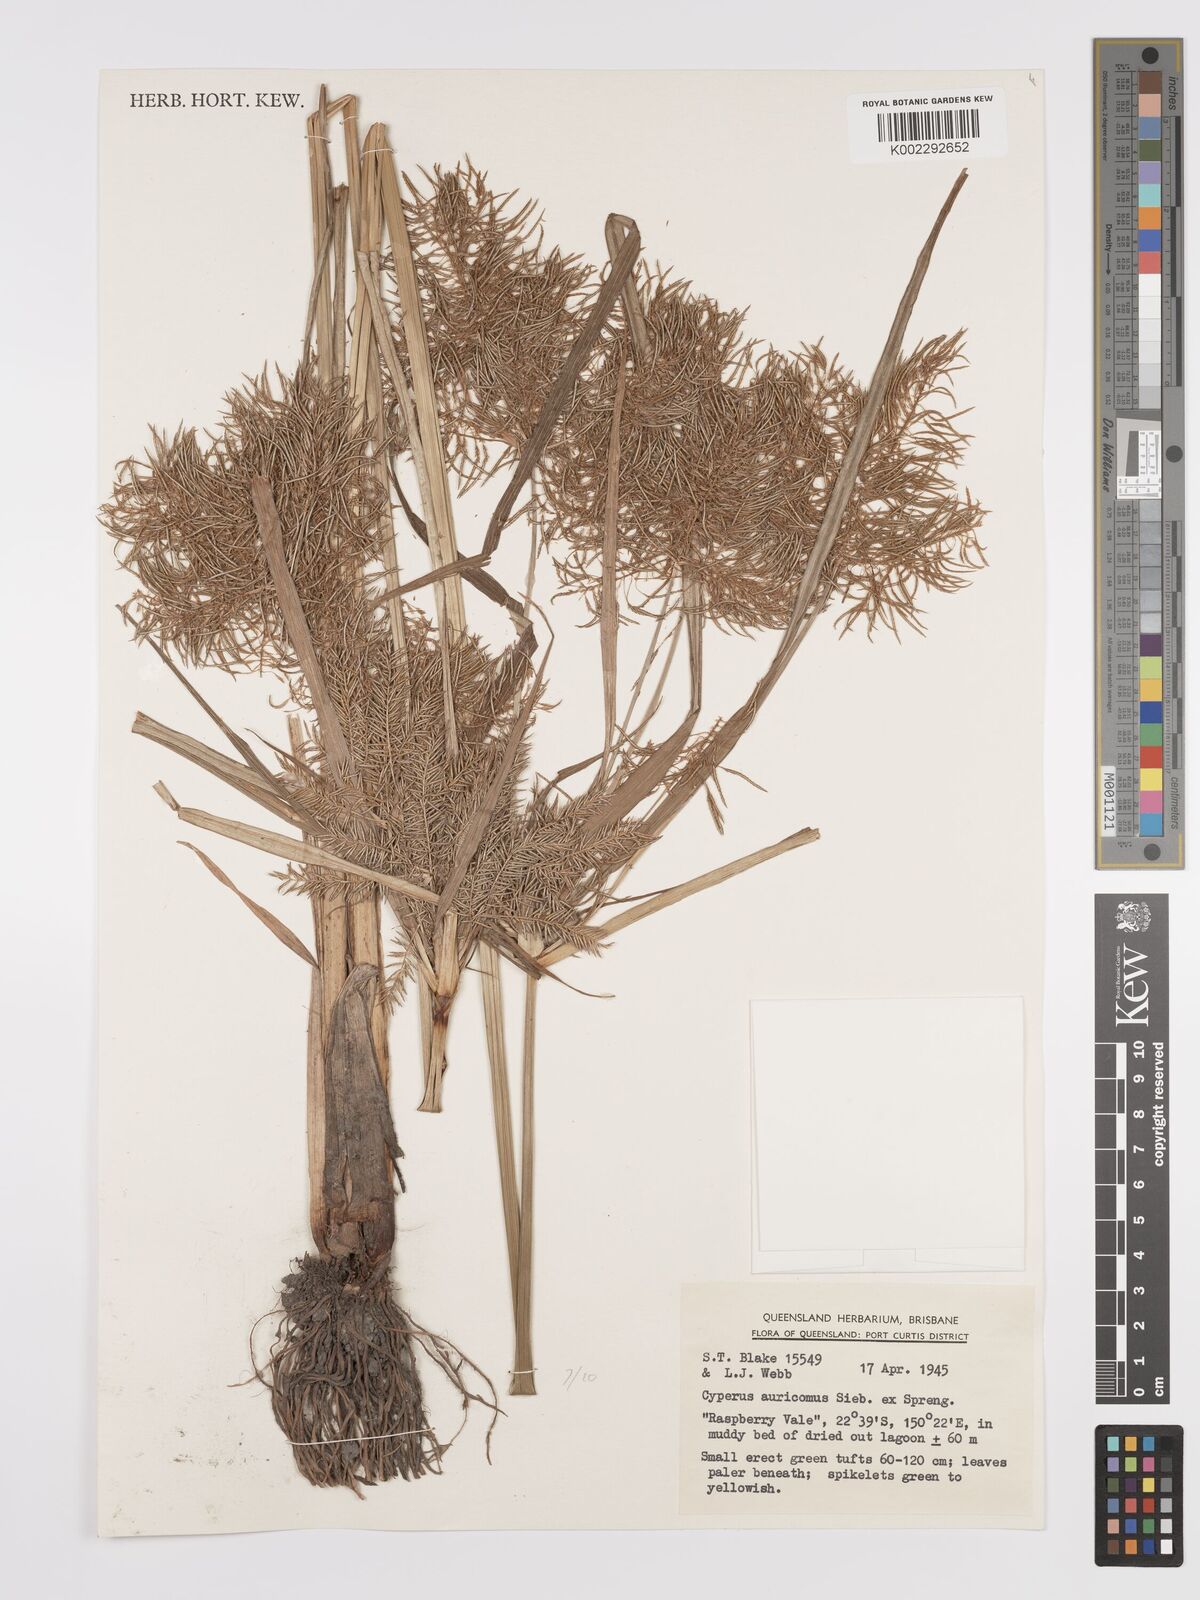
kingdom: Plantae
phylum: Tracheophyta
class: Liliopsida
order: Poales
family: Cyperaceae
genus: Cyperus
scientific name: Cyperus digitatus
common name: Finger flatsedge
